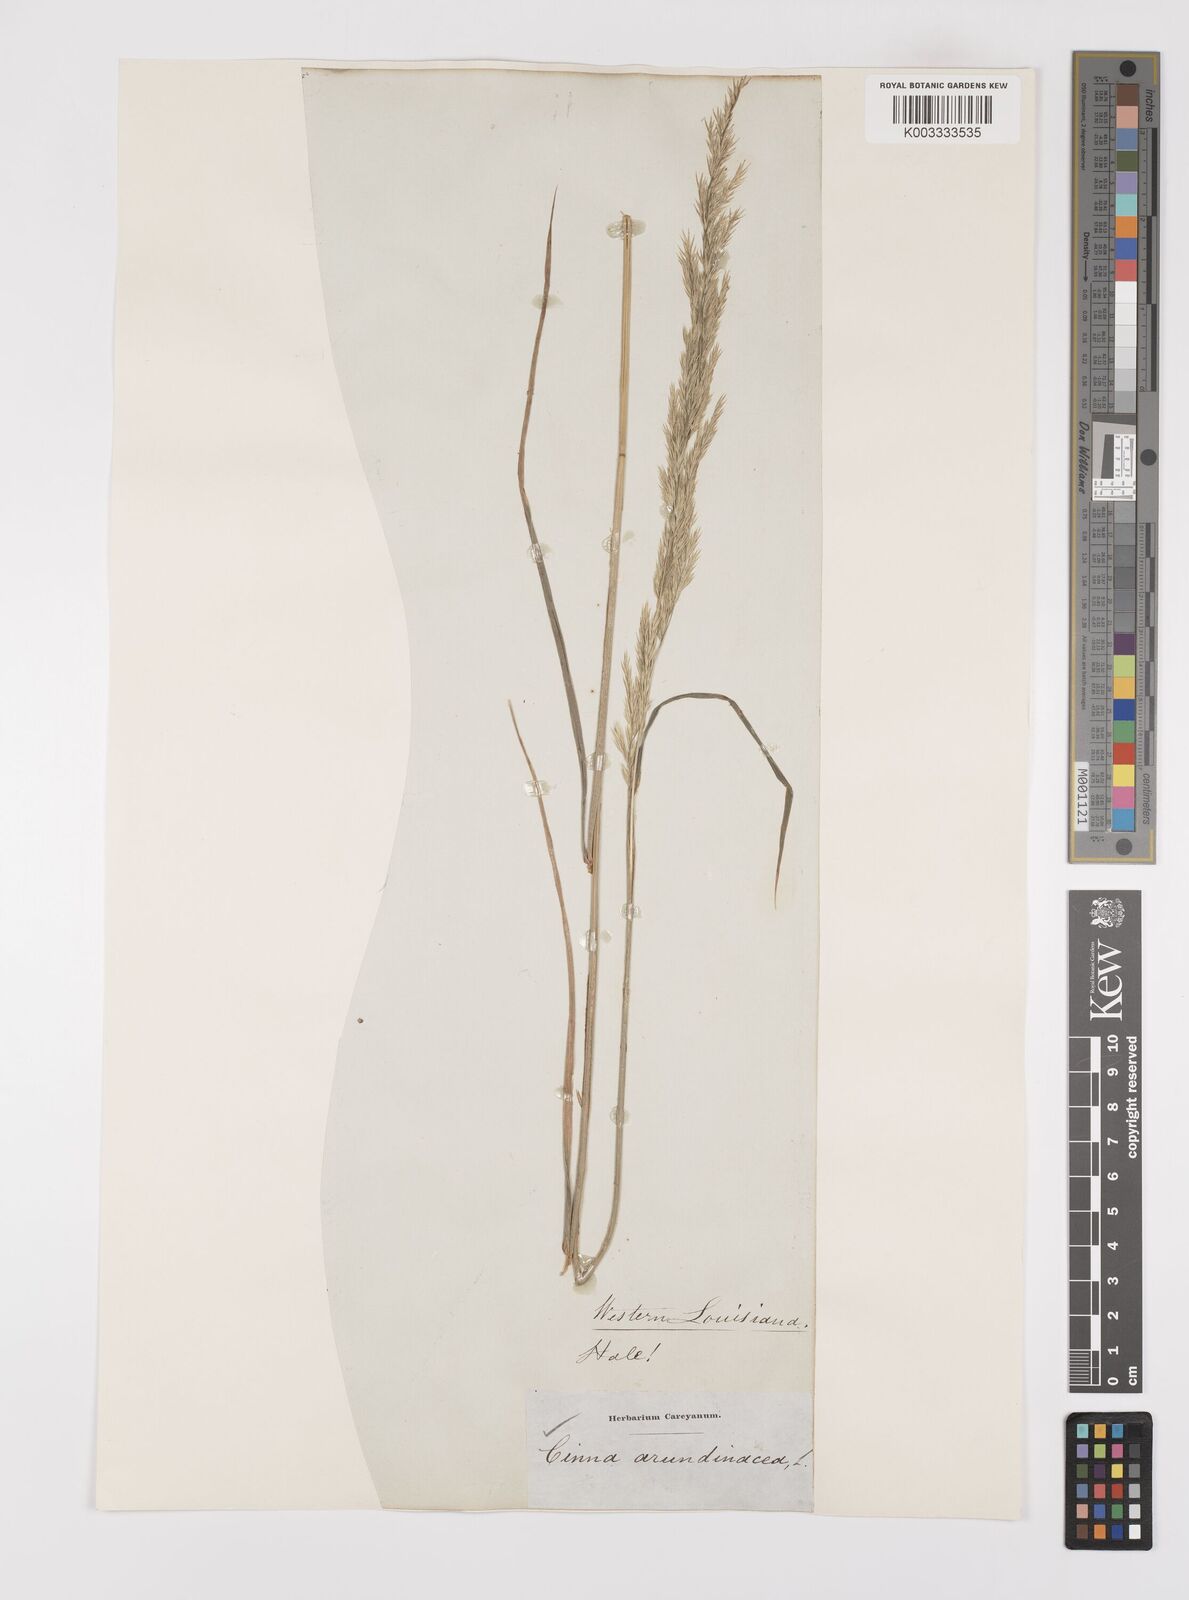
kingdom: Plantae
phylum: Tracheophyta
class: Liliopsida
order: Poales
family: Poaceae
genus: Cinna
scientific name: Cinna
